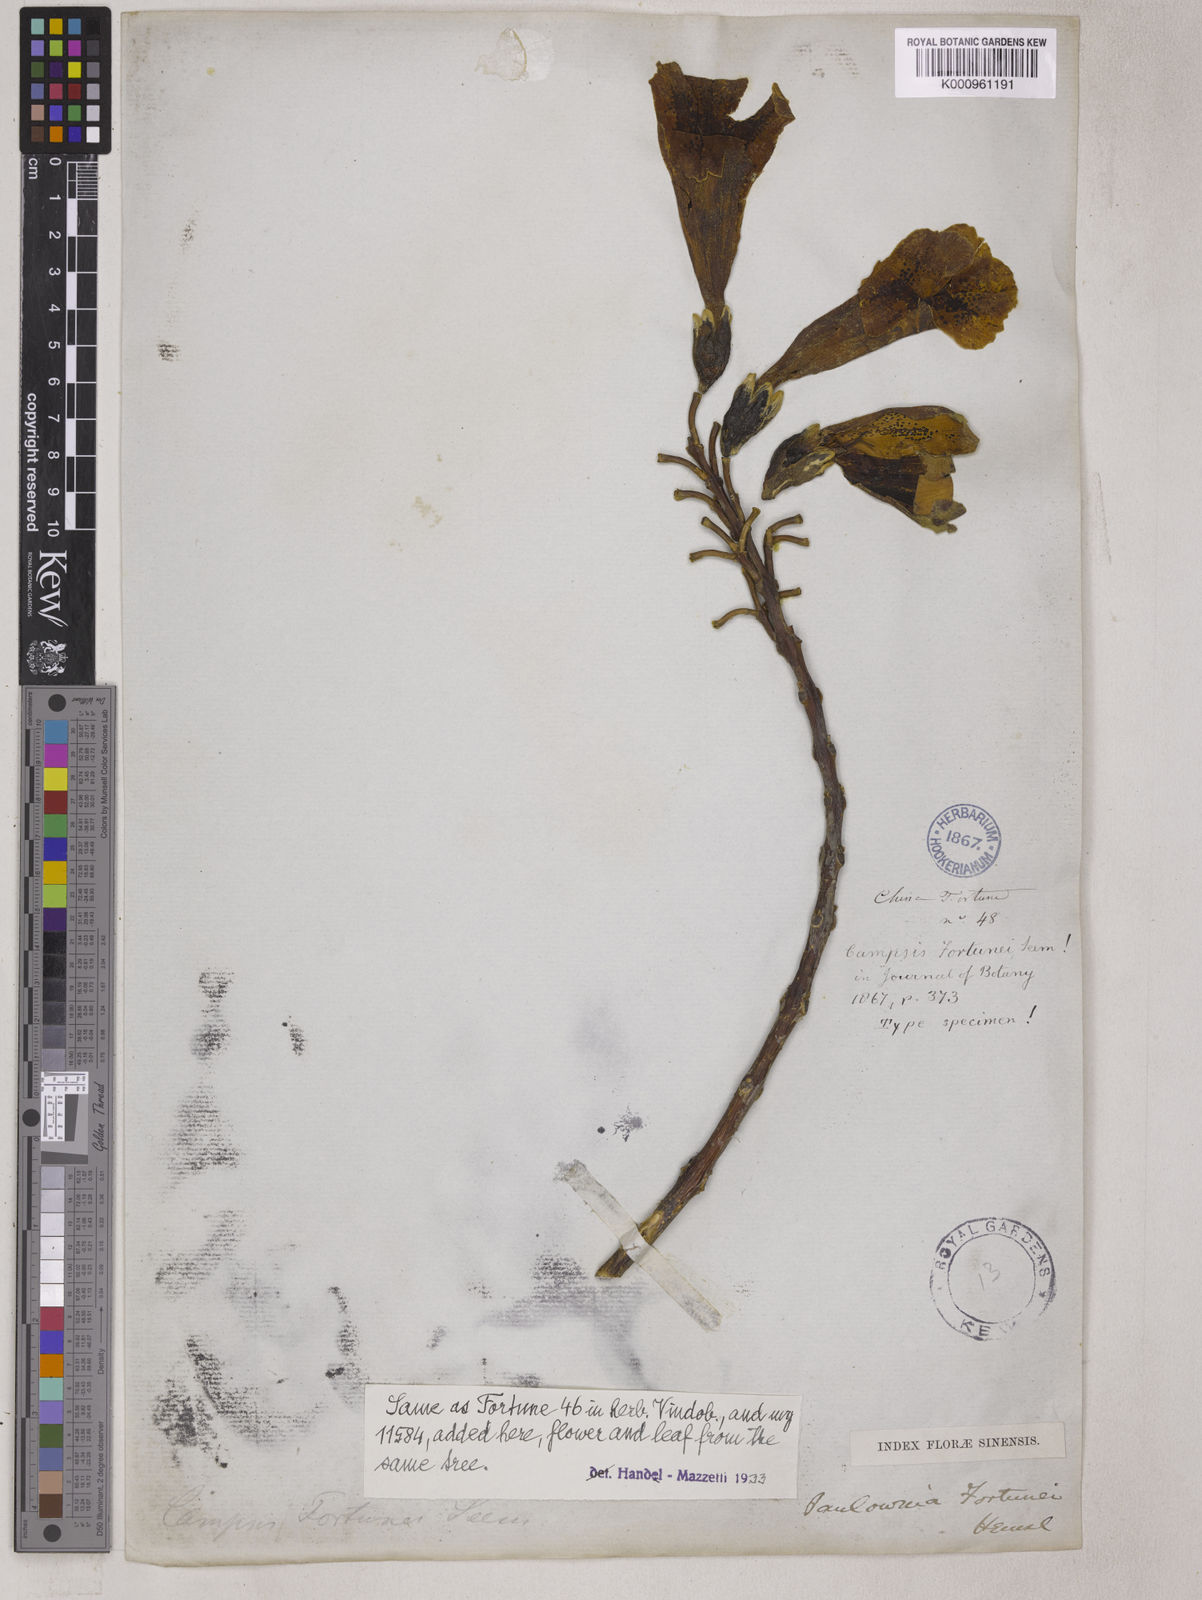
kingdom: Plantae
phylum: Tracheophyta
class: Magnoliopsida
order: Lamiales
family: Paulowniaceae
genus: Paulownia
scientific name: Paulownia fortunei
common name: Dragontree
